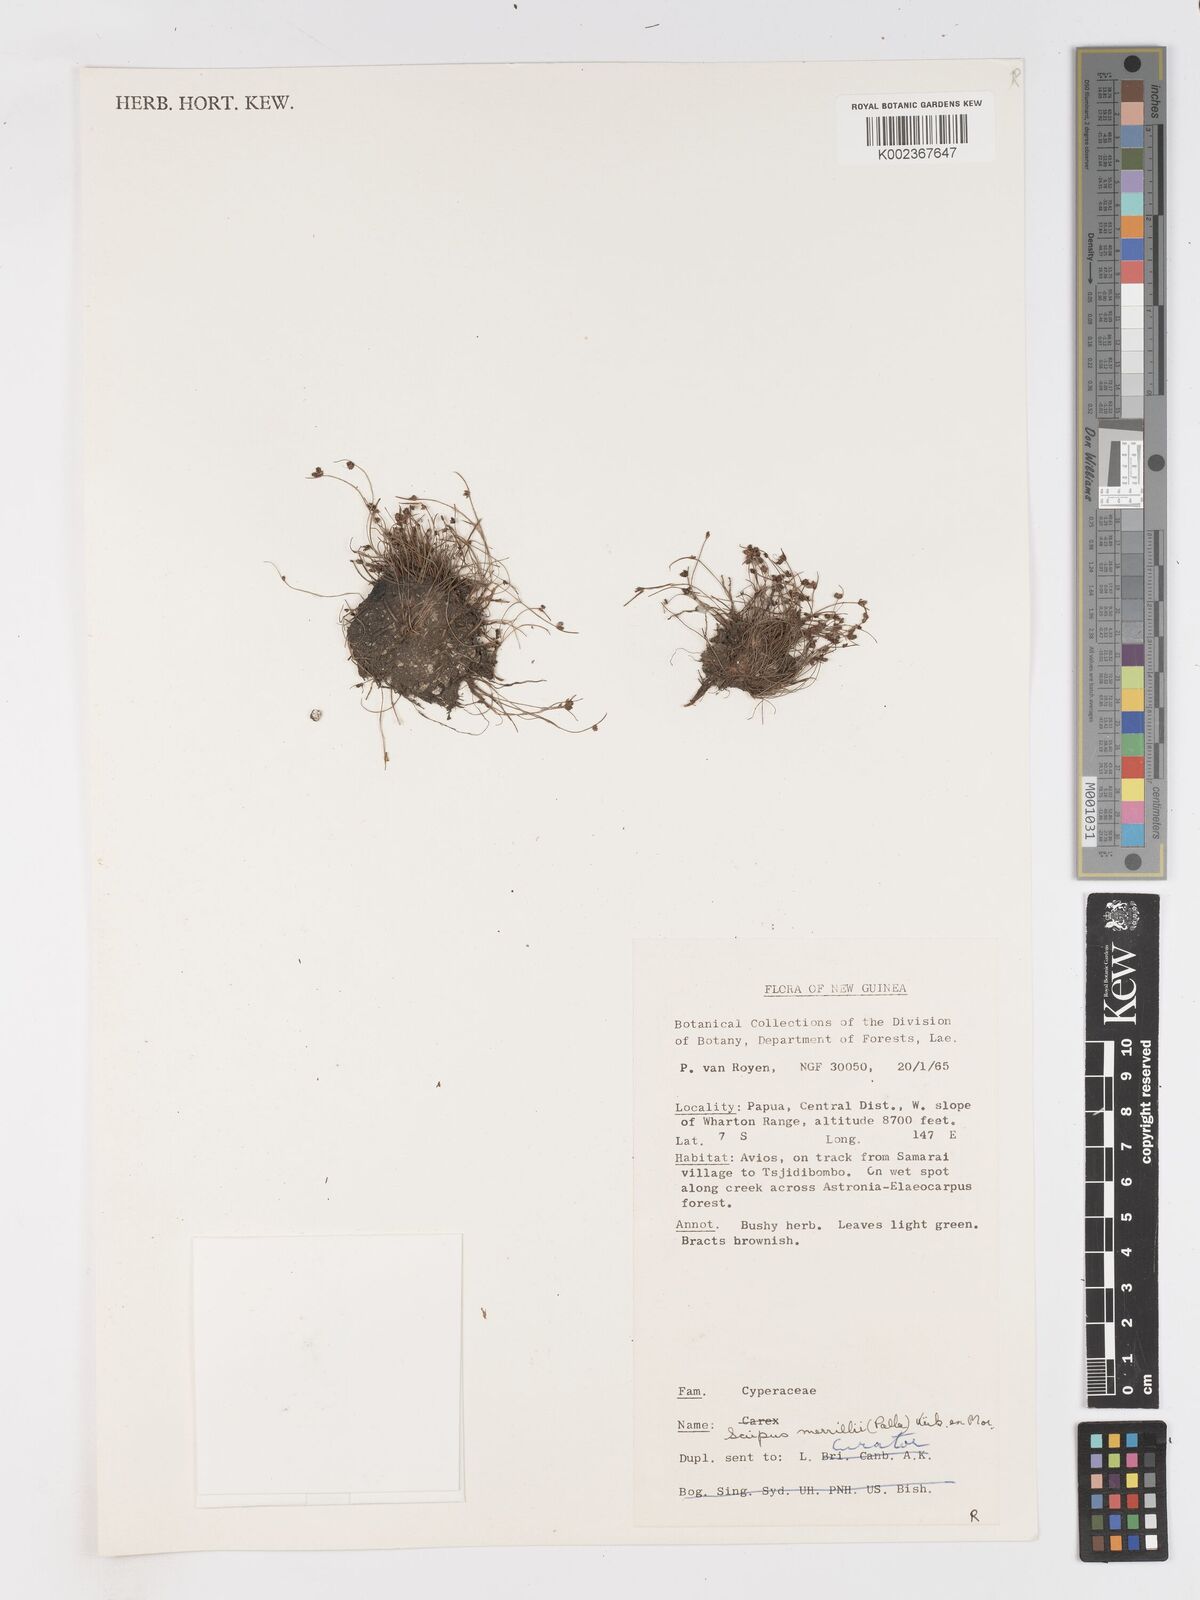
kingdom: Plantae
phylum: Tracheophyta
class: Liliopsida
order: Poales
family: Cyperaceae
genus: Isolepis
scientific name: Isolepis subtilissima
